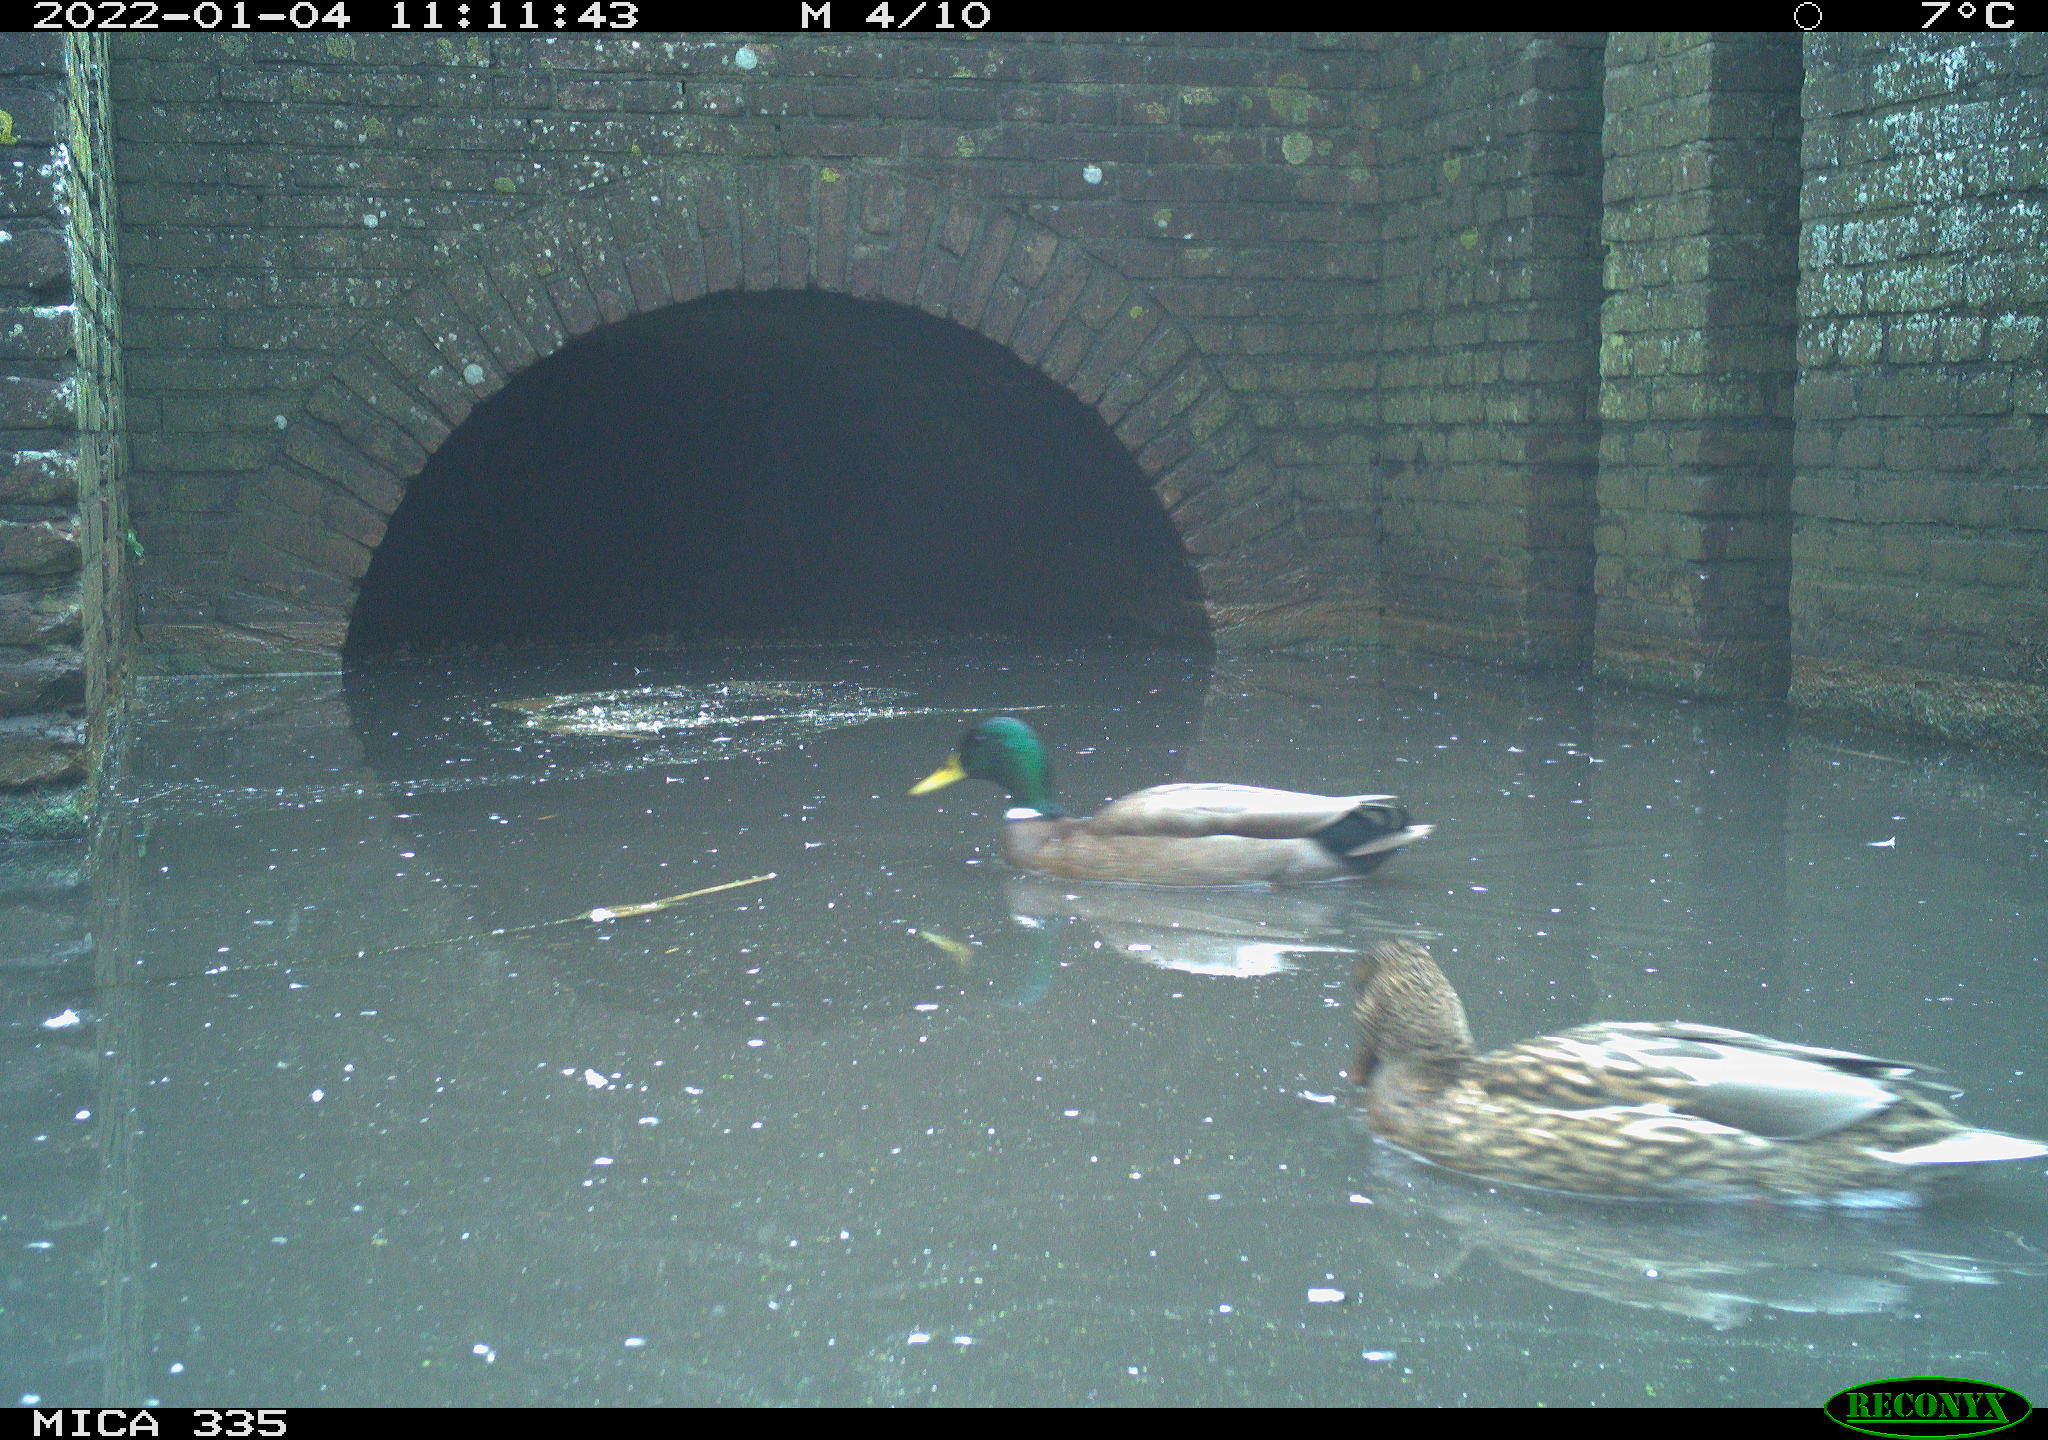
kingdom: Animalia
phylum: Chordata
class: Aves
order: Anseriformes
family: Anatidae
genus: Anas
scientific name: Anas platyrhynchos
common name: Mallard
